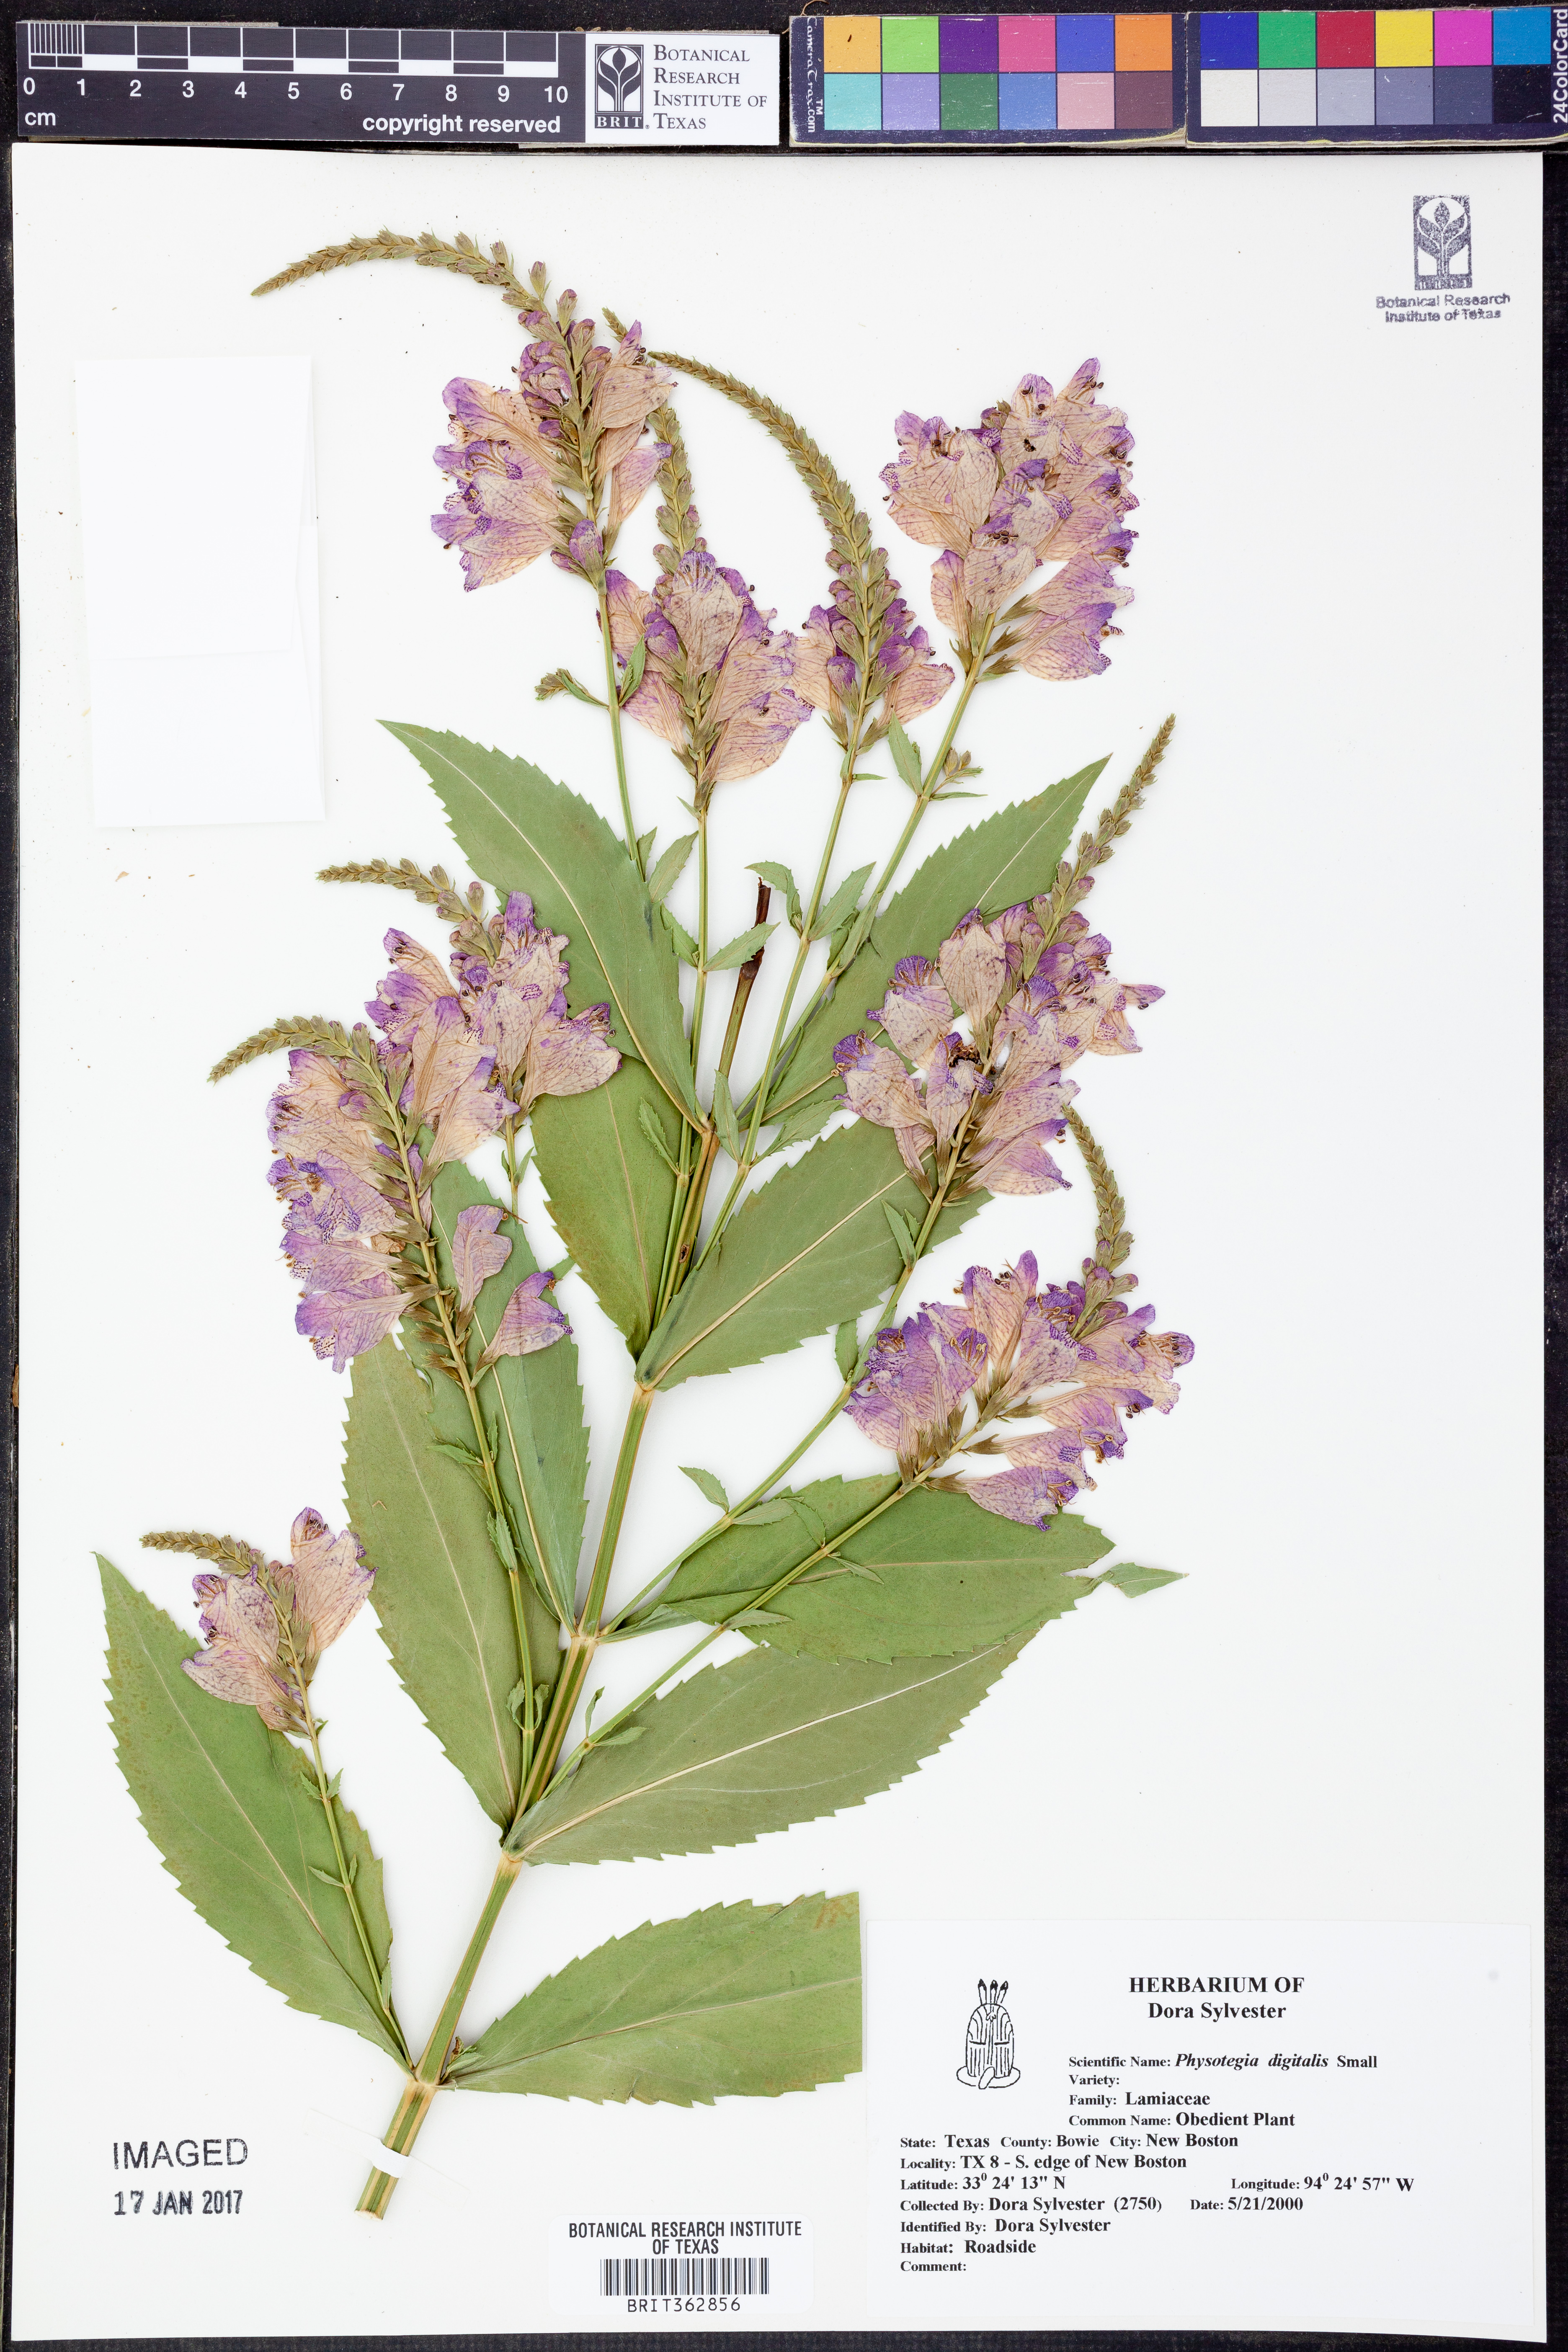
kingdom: Plantae
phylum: Tracheophyta
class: Magnoliopsida
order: Lamiales
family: Lamiaceae
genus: Physostegia
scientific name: Physostegia digitalis
